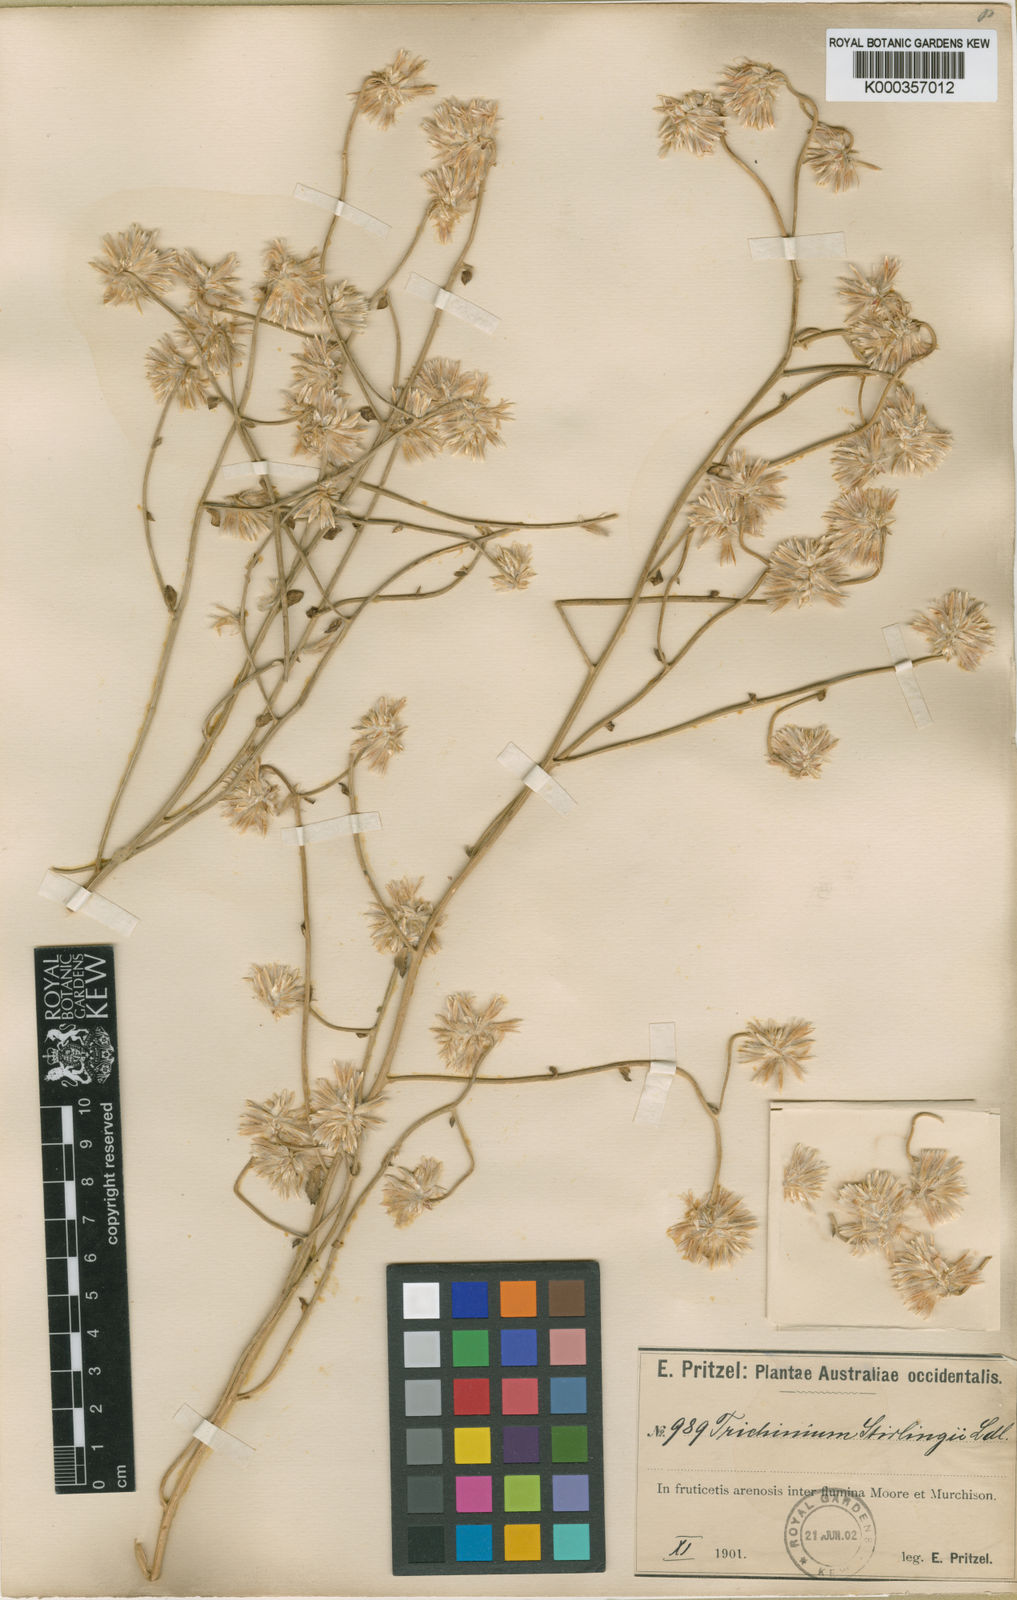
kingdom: Plantae
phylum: Tracheophyta
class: Magnoliopsida
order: Caryophyllales
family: Amaranthaceae
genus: Ptilotus
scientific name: Ptilotus stirlingii
